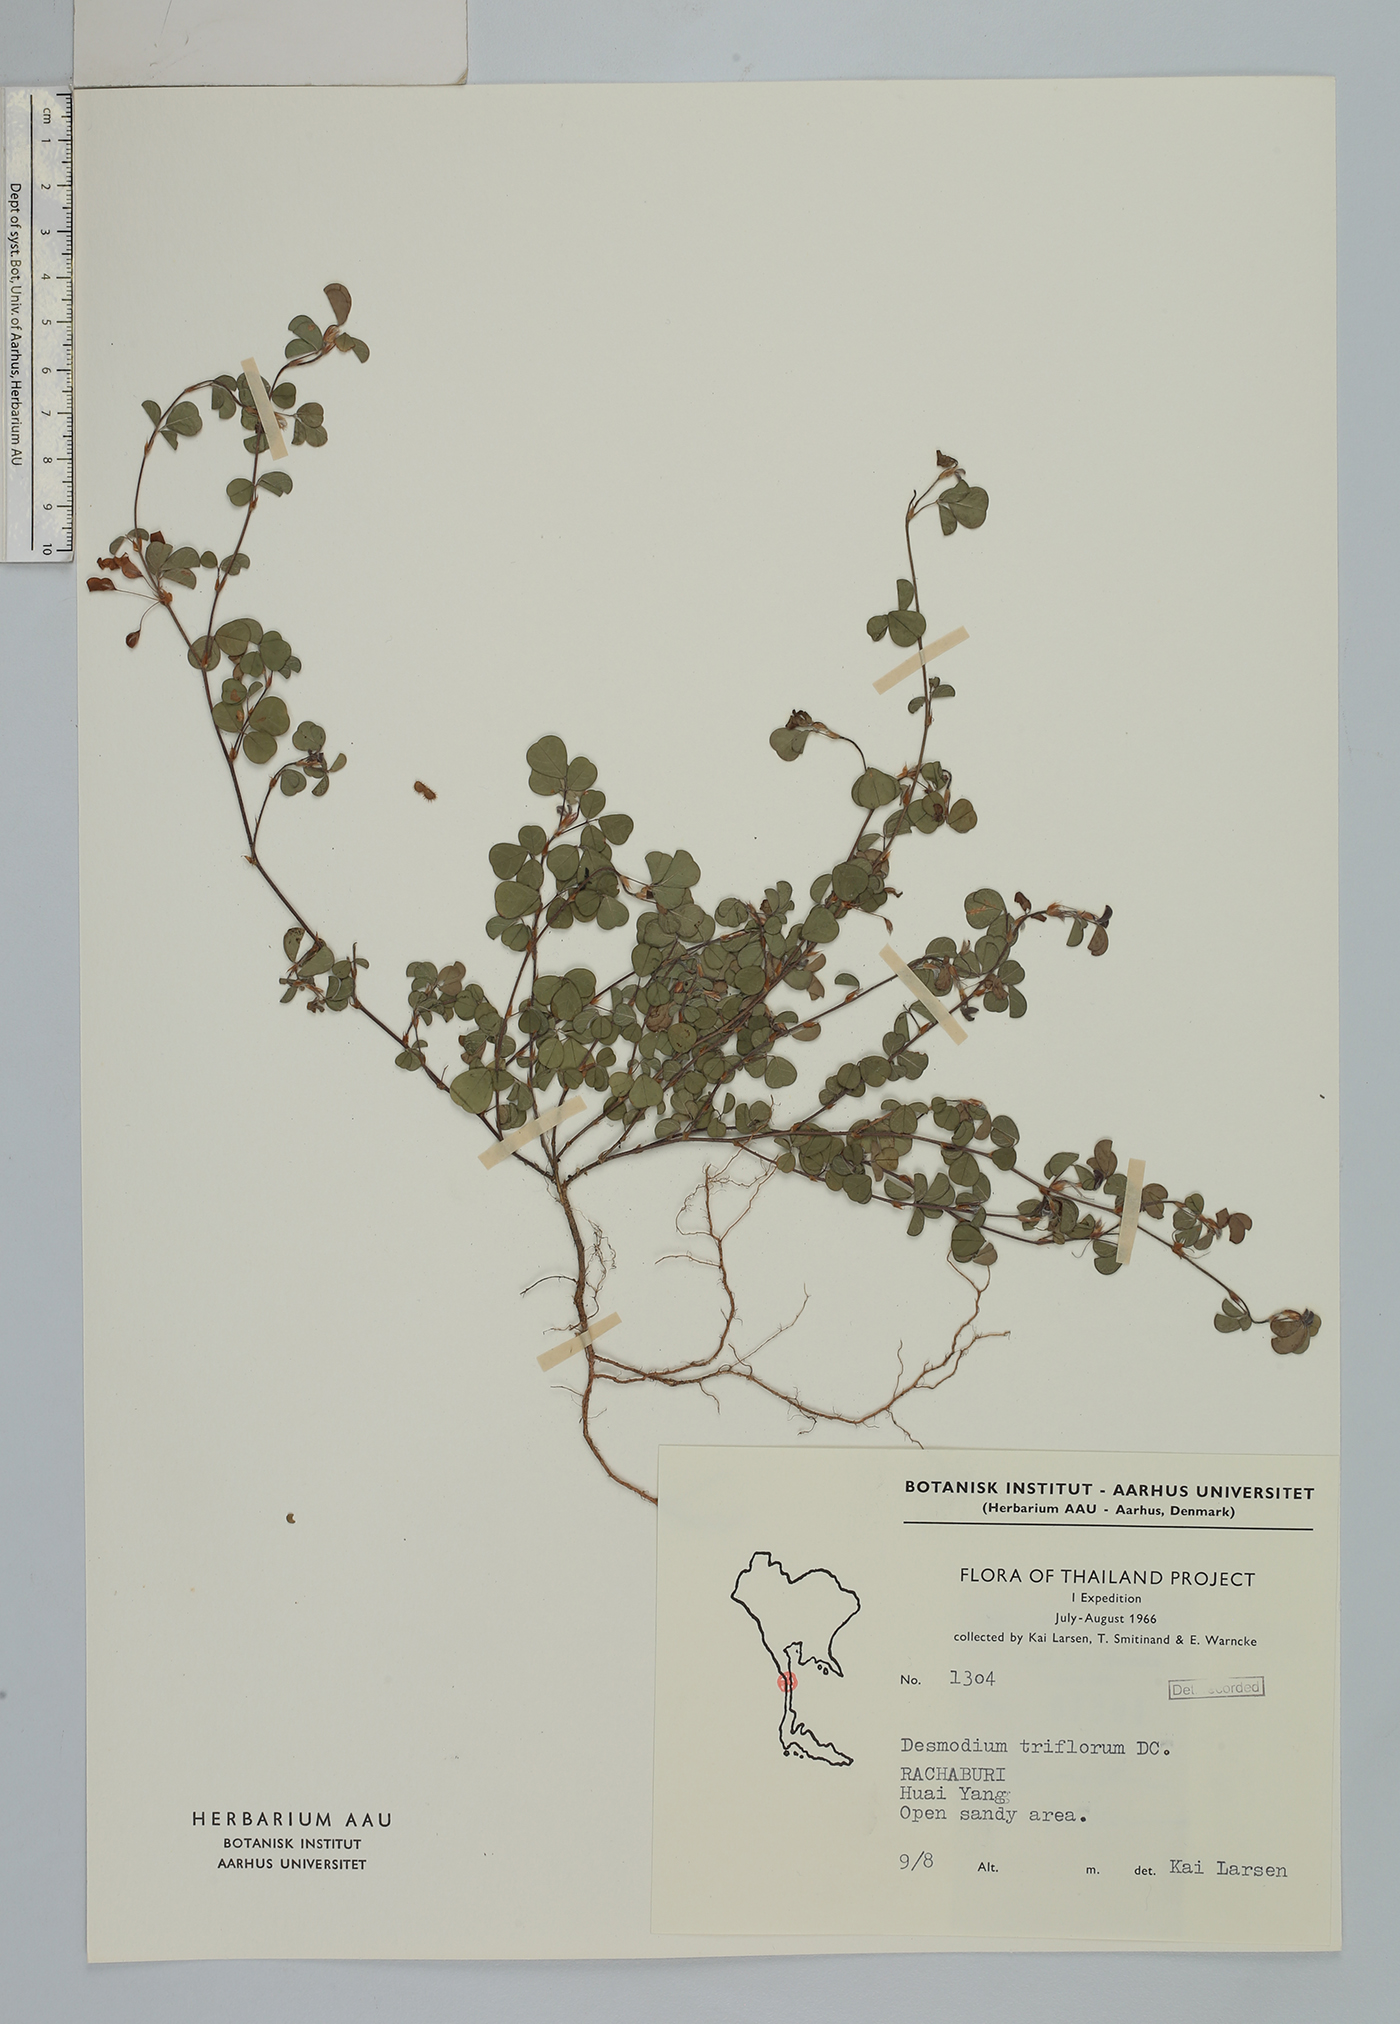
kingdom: Plantae
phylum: Tracheophyta
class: Magnoliopsida
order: Fabales
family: Fabaceae
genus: Grona
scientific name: Grona triflora
